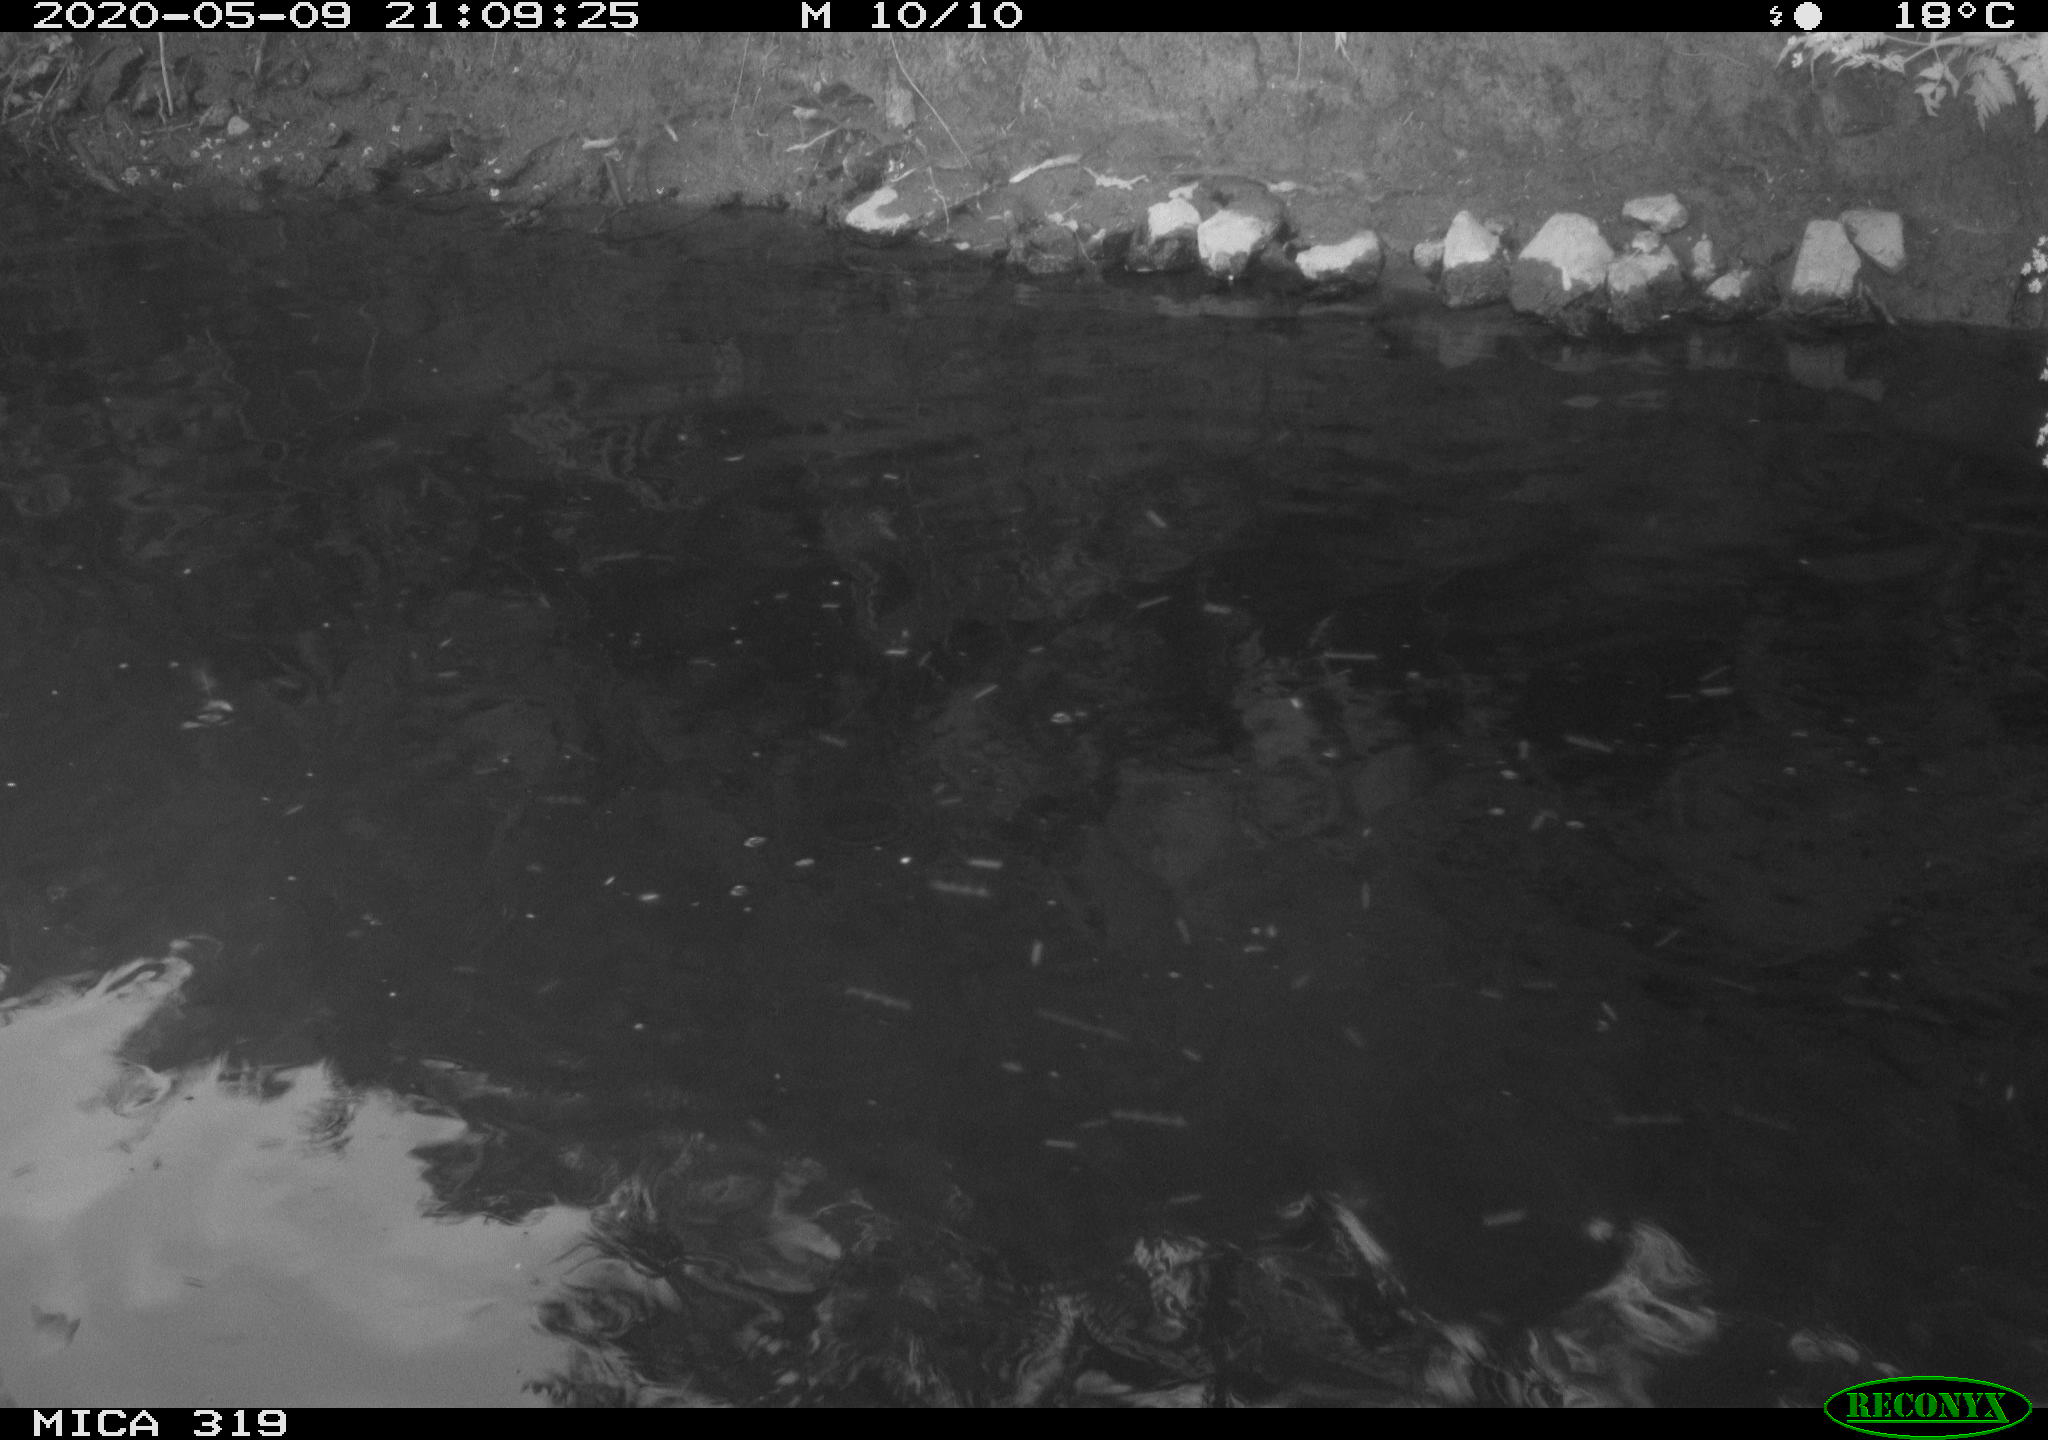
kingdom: Animalia
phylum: Chordata
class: Aves
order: Anseriformes
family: Anatidae
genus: Anas
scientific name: Anas platyrhynchos
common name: Mallard
